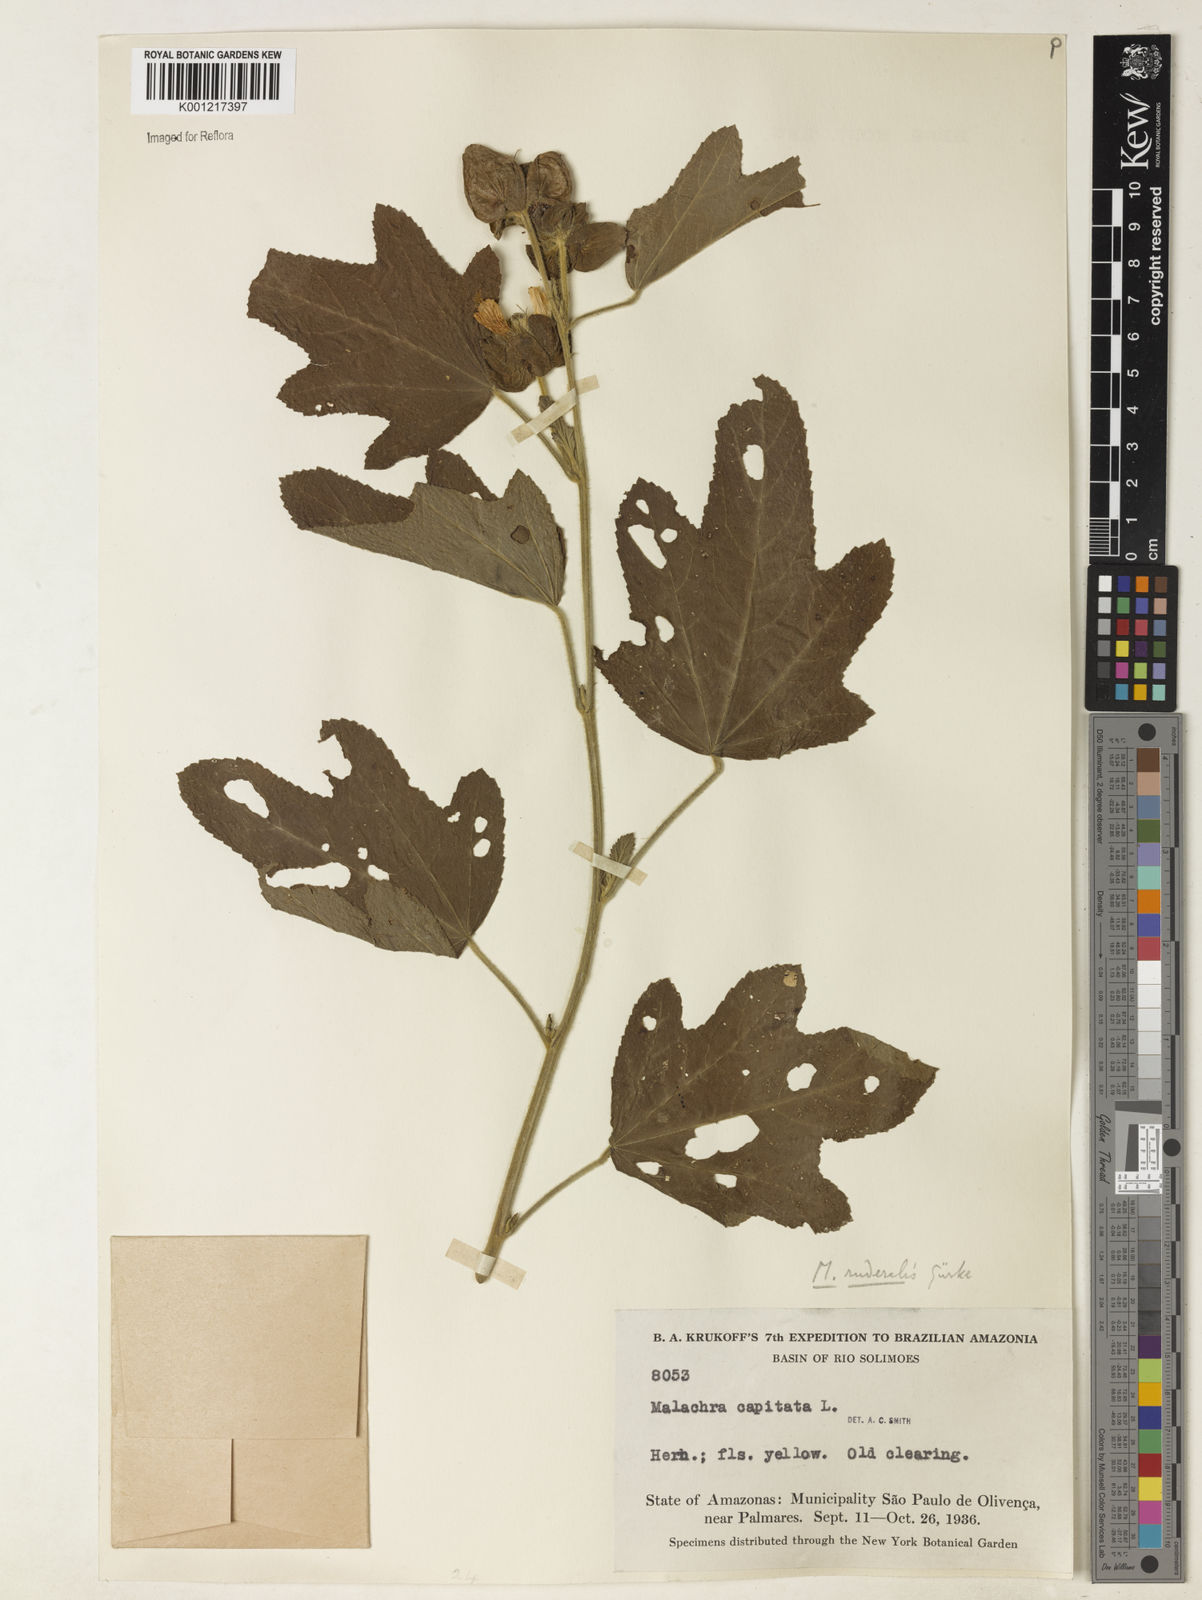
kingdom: Plantae
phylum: Tracheophyta
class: Magnoliopsida
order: Malvales
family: Malvaceae
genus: Malachra
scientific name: Malachra
